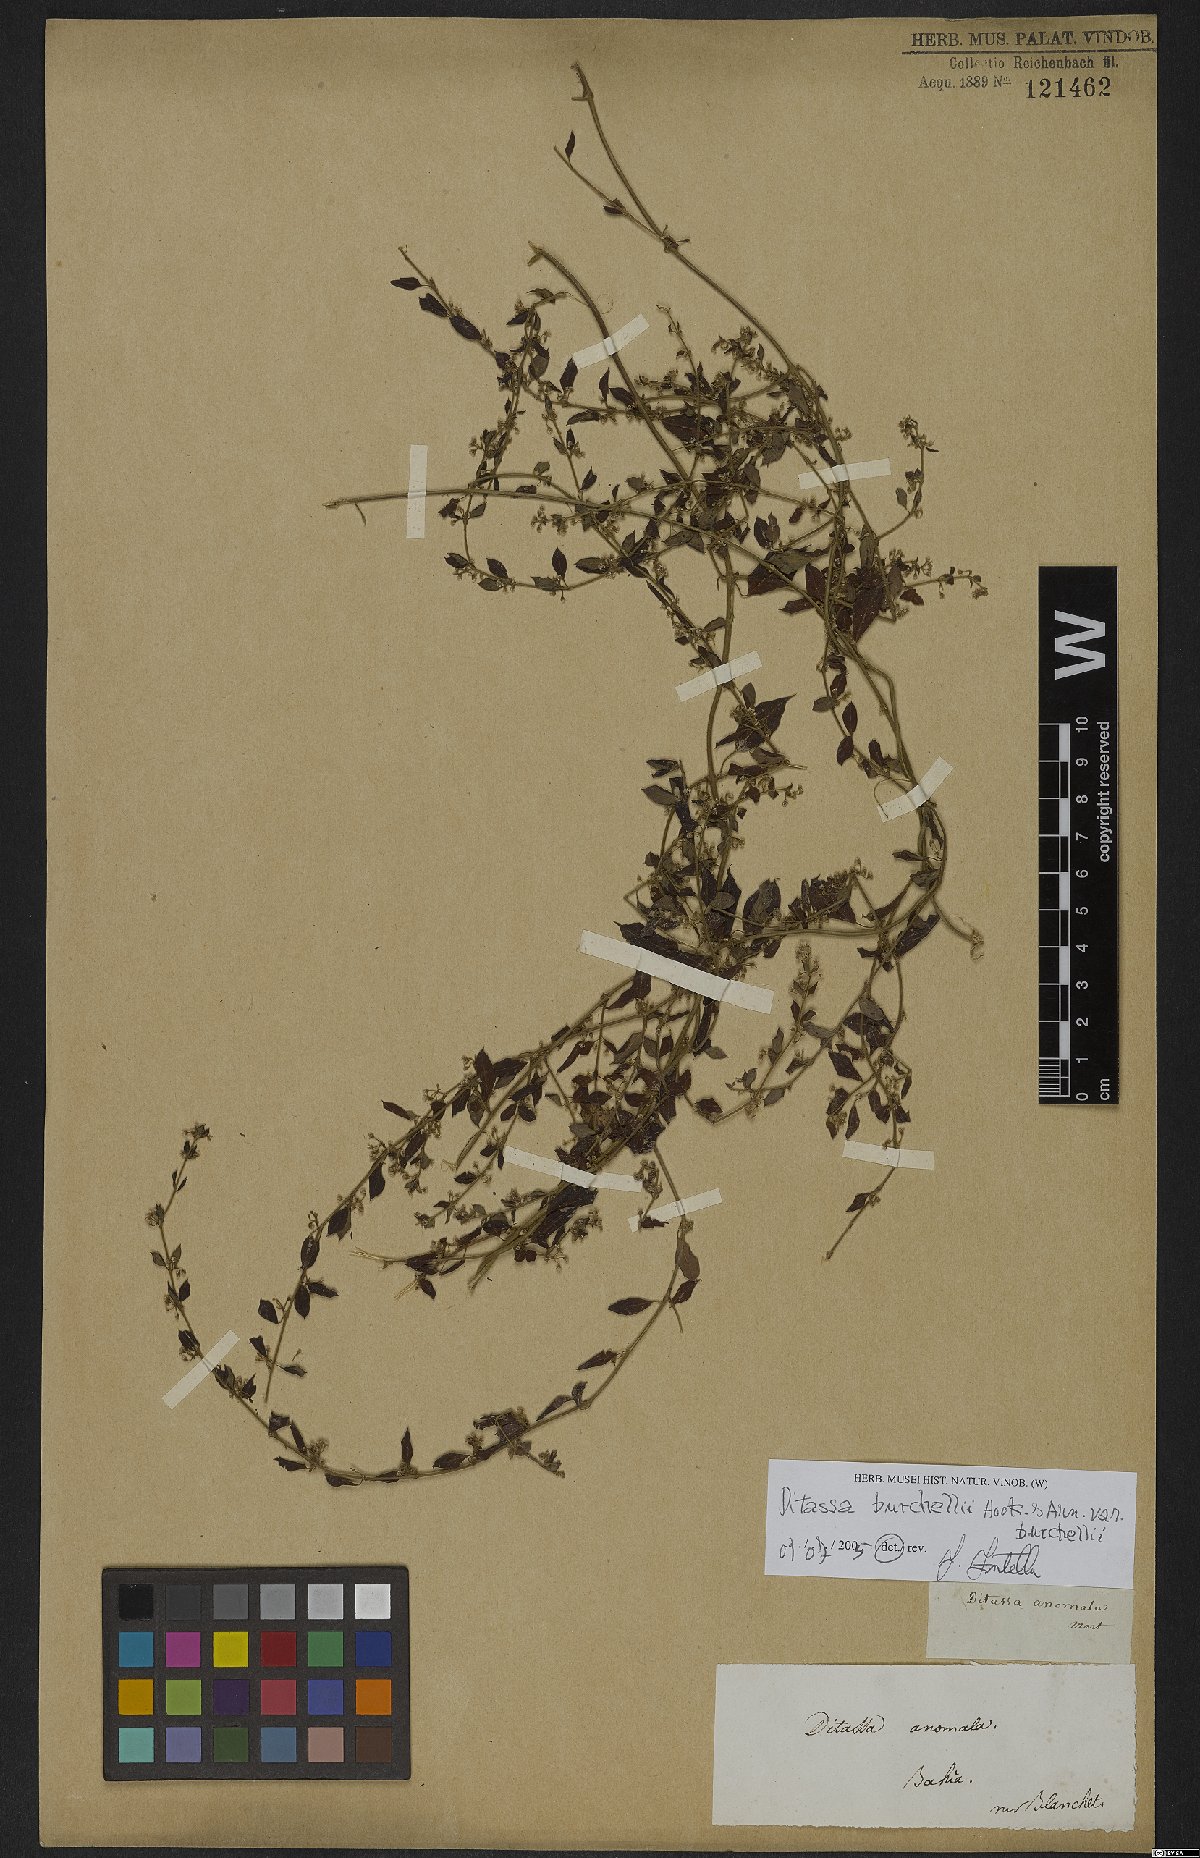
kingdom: Plantae
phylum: Tracheophyta
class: Magnoliopsida
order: Gentianales
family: Apocynaceae
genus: Metastelma
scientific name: Metastelma burchellii
